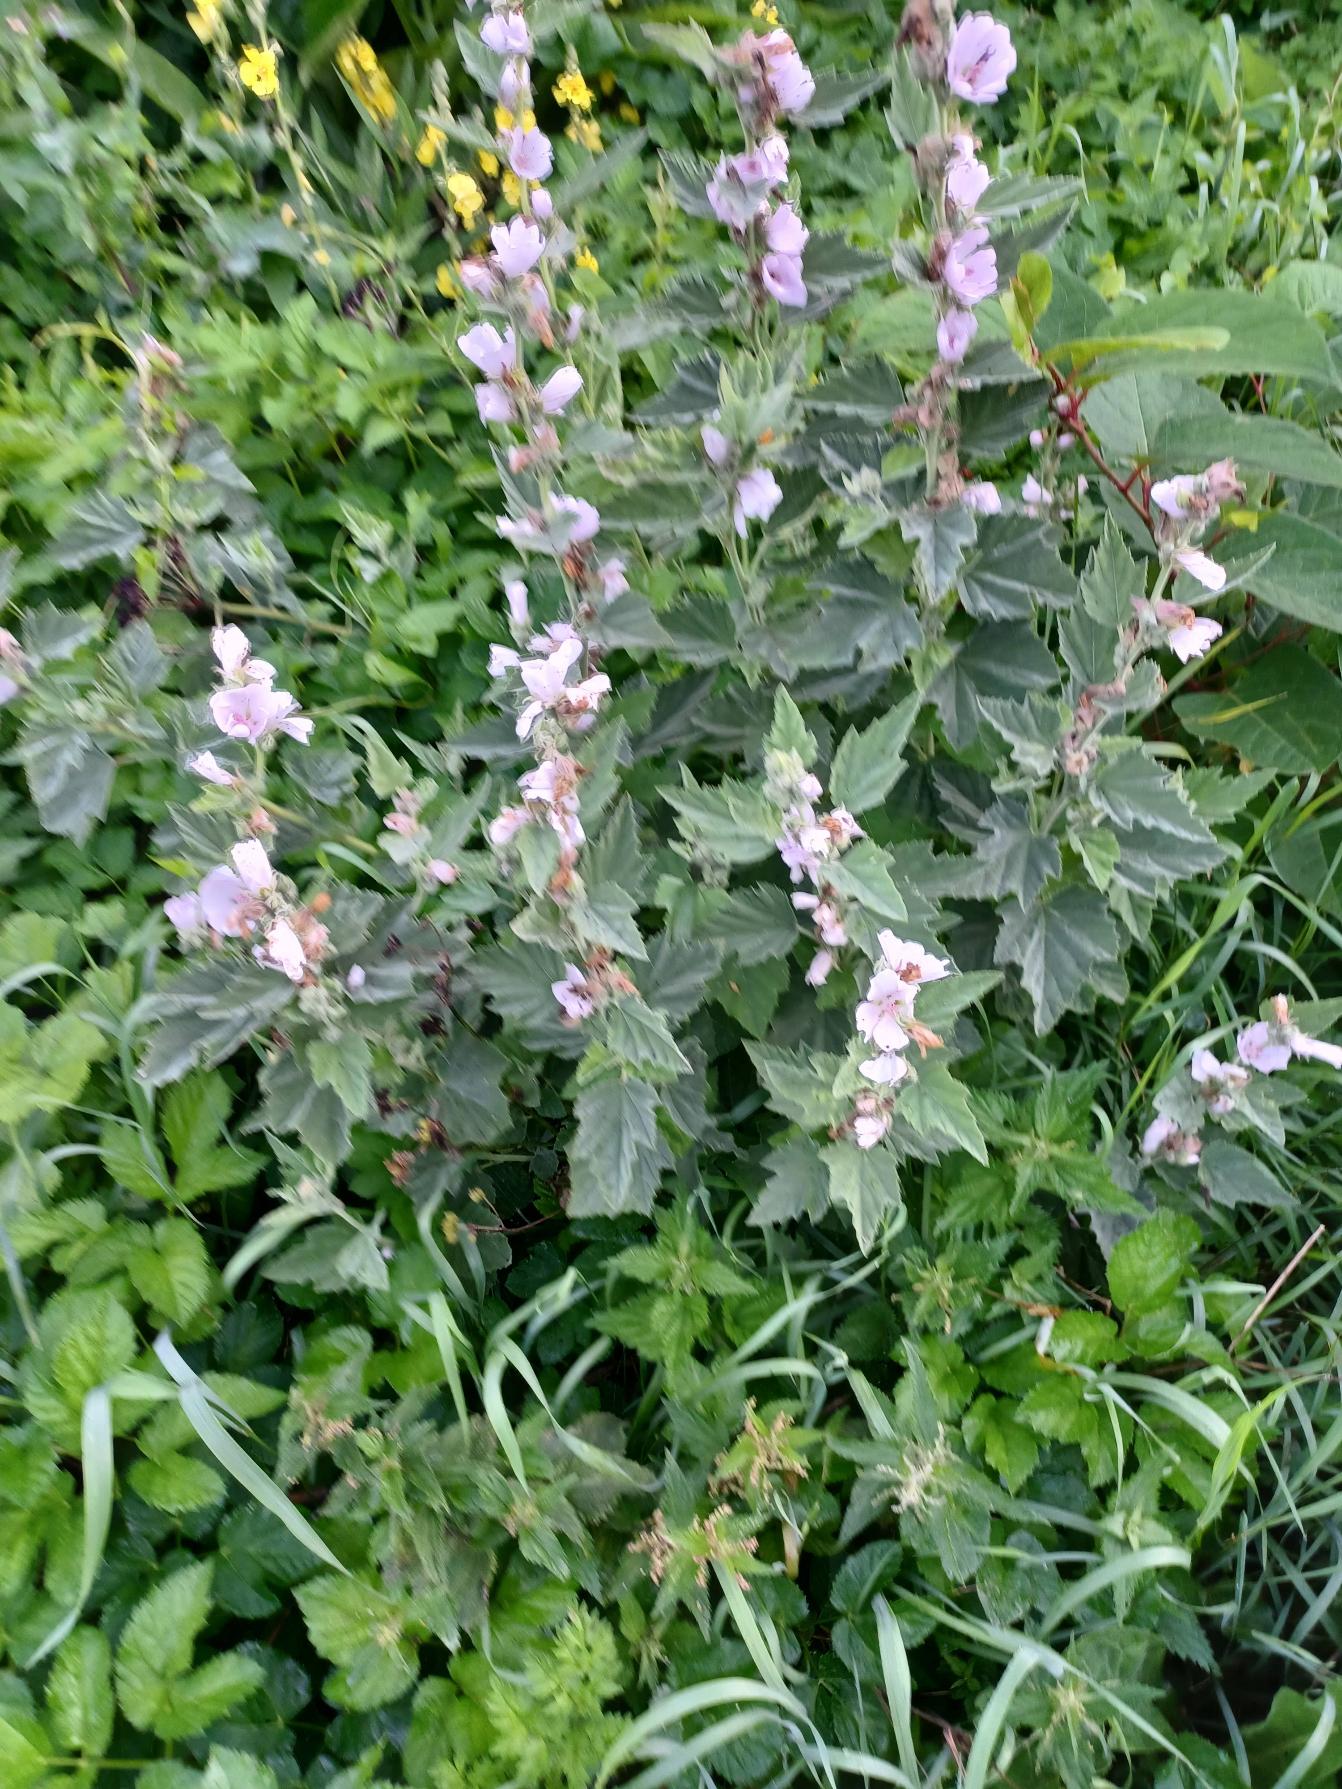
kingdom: Plantae
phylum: Tracheophyta
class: Magnoliopsida
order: Malvales
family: Malvaceae
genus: Althaea
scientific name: Althaea officinalis
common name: Lægestokrose
